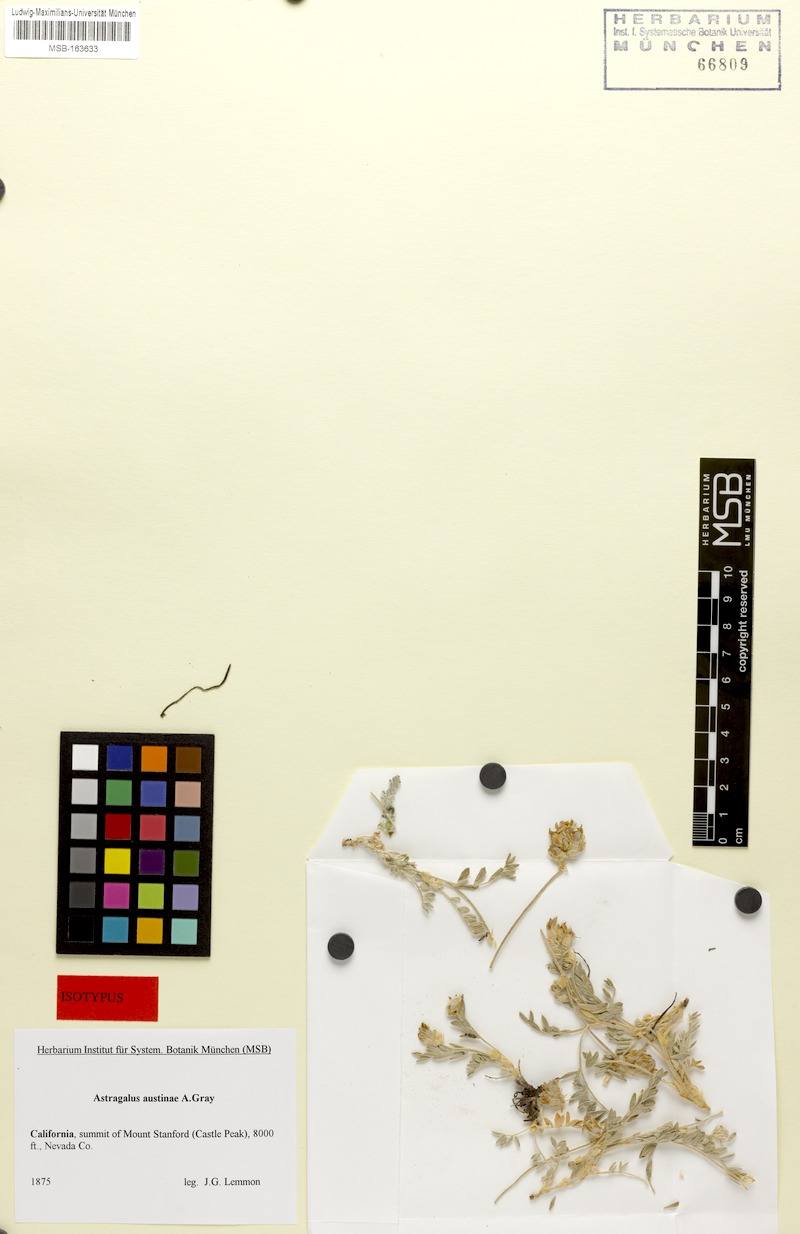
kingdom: Plantae
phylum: Tracheophyta
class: Magnoliopsida
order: Fabales
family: Fabaceae
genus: Astragalus
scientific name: Astragalus austiniae
